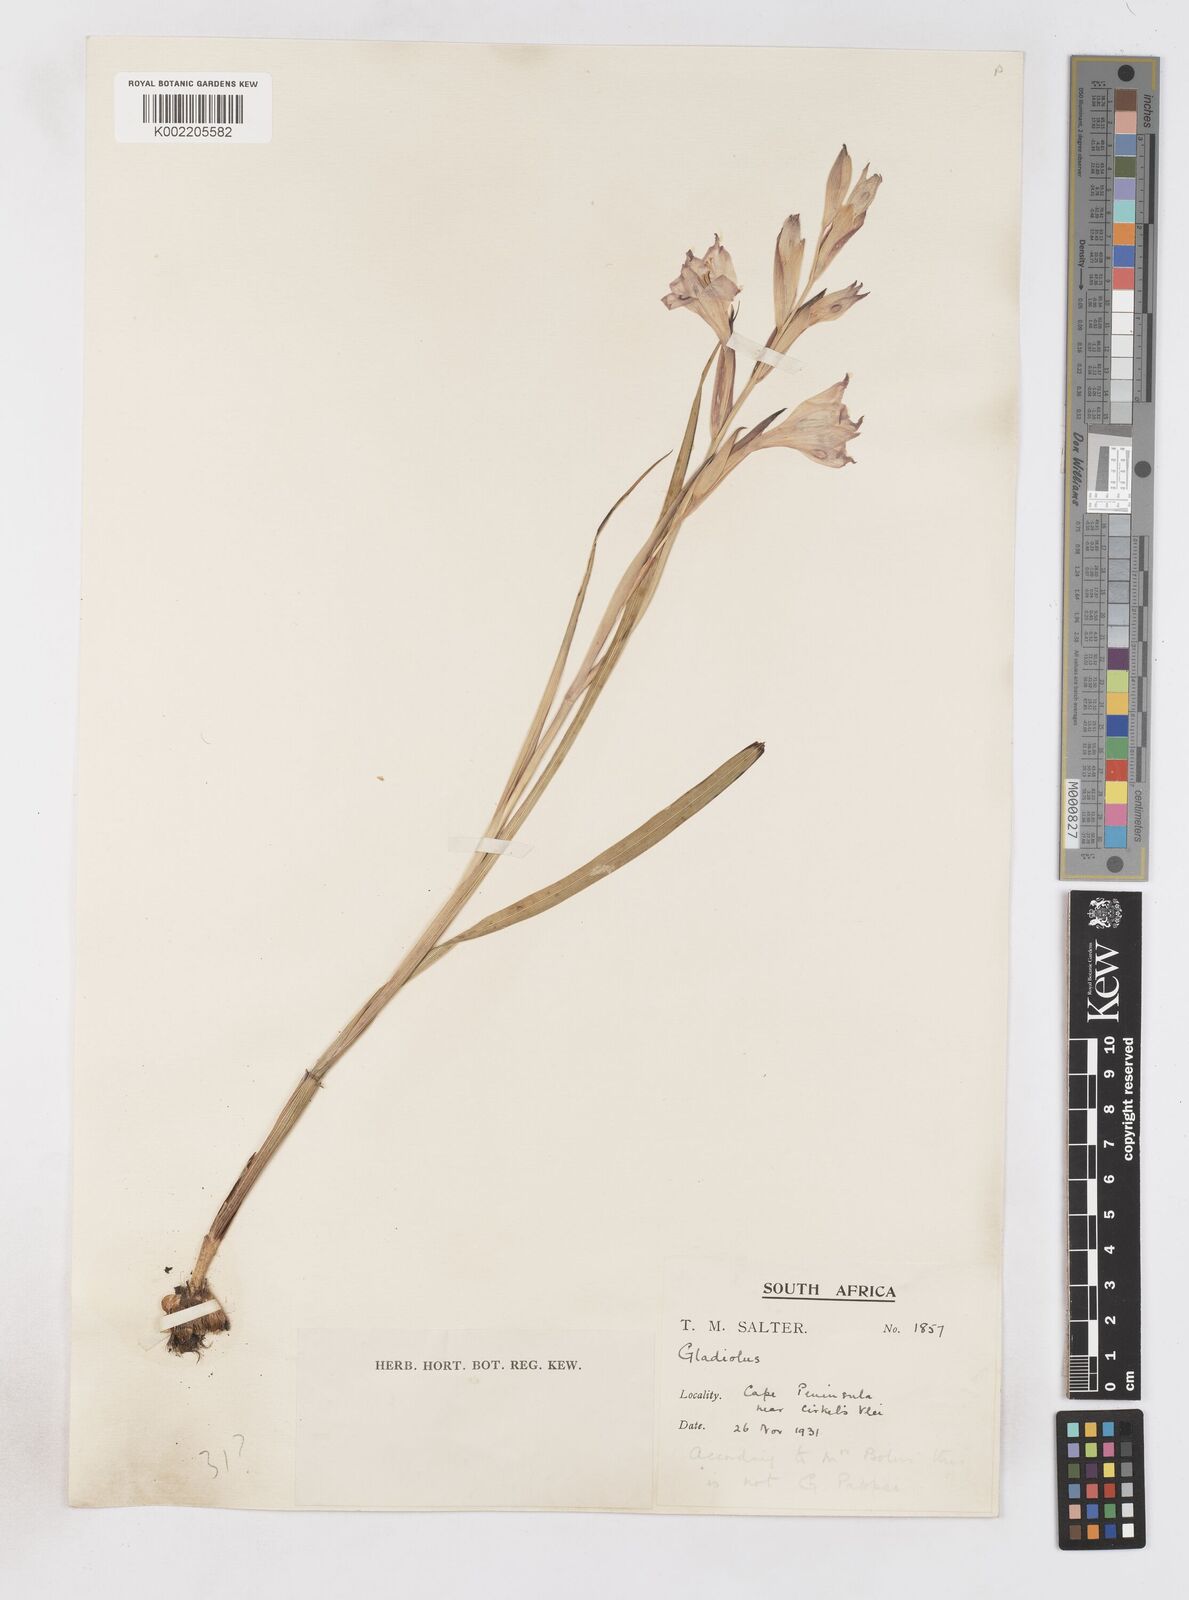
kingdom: Plantae
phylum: Tracheophyta
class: Liliopsida
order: Asparagales
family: Iridaceae
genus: Gladiolus
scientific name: Gladiolus carneus
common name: Painted-lady
